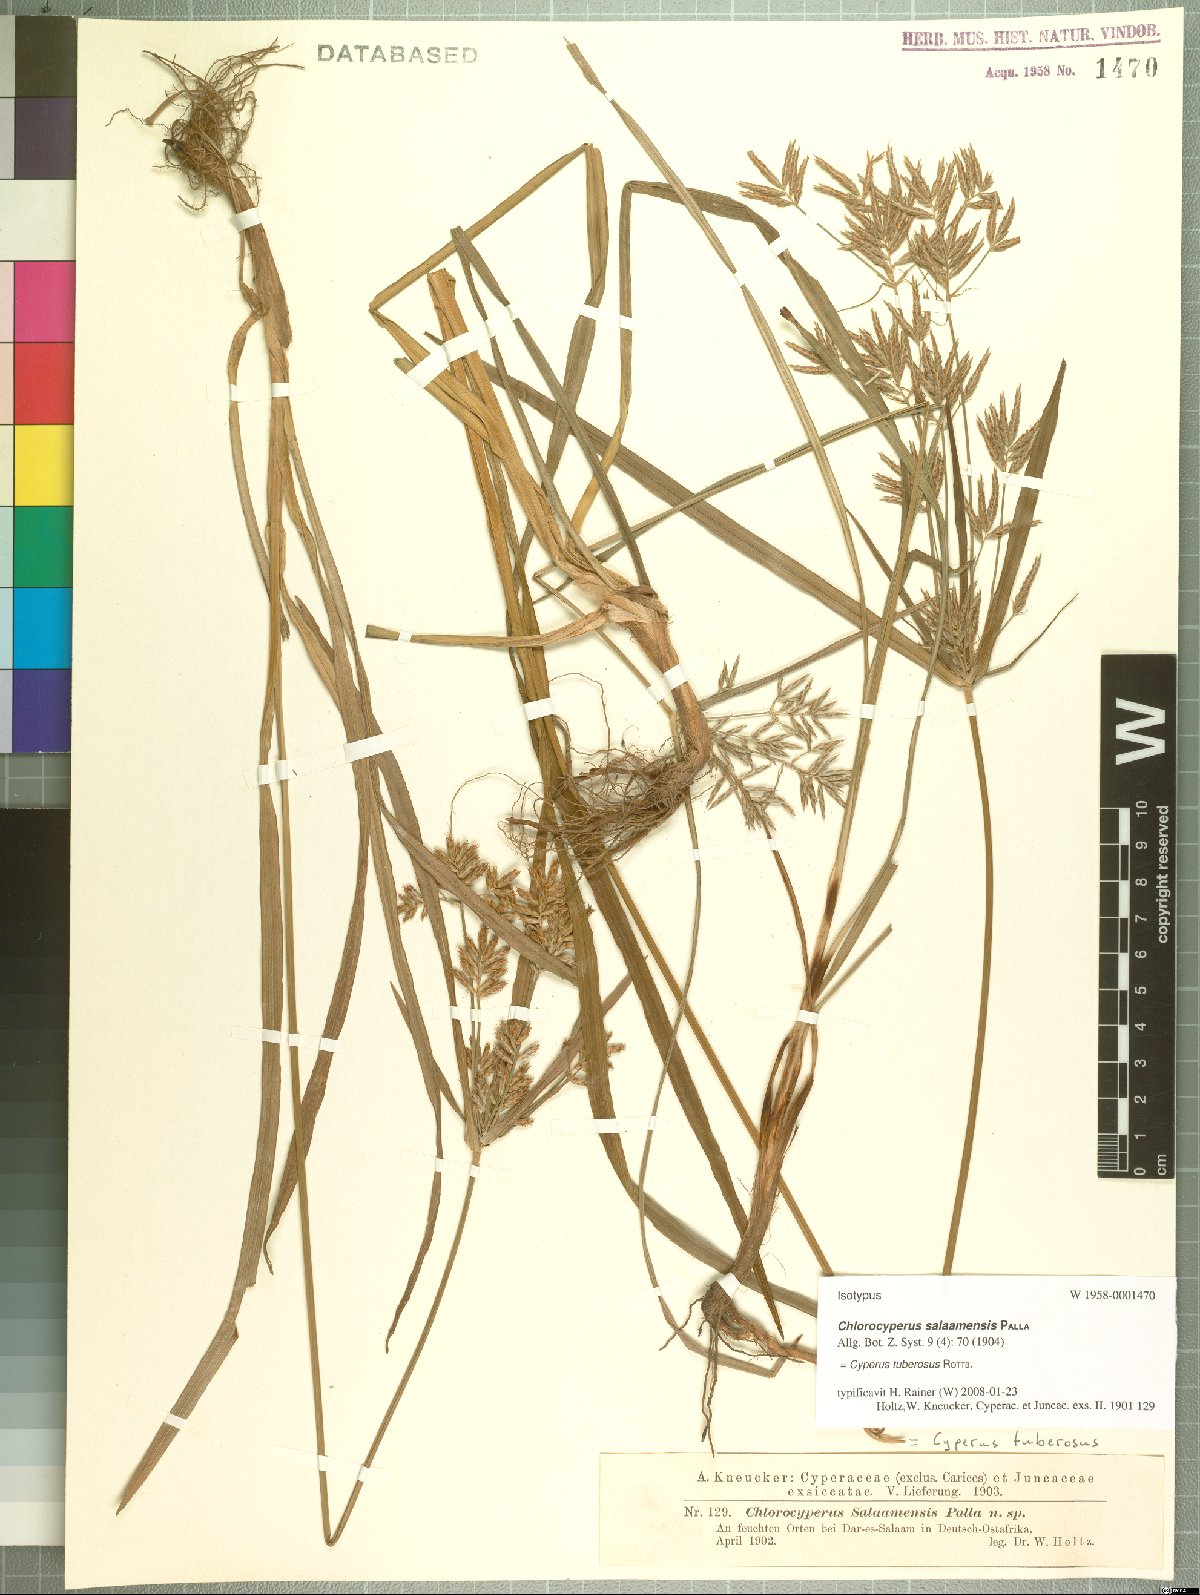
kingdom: Plantae
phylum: Tracheophyta
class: Liliopsida
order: Poales
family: Cyperaceae
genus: Cyperus
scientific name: Cyperus tuberosus
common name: Nut grass
